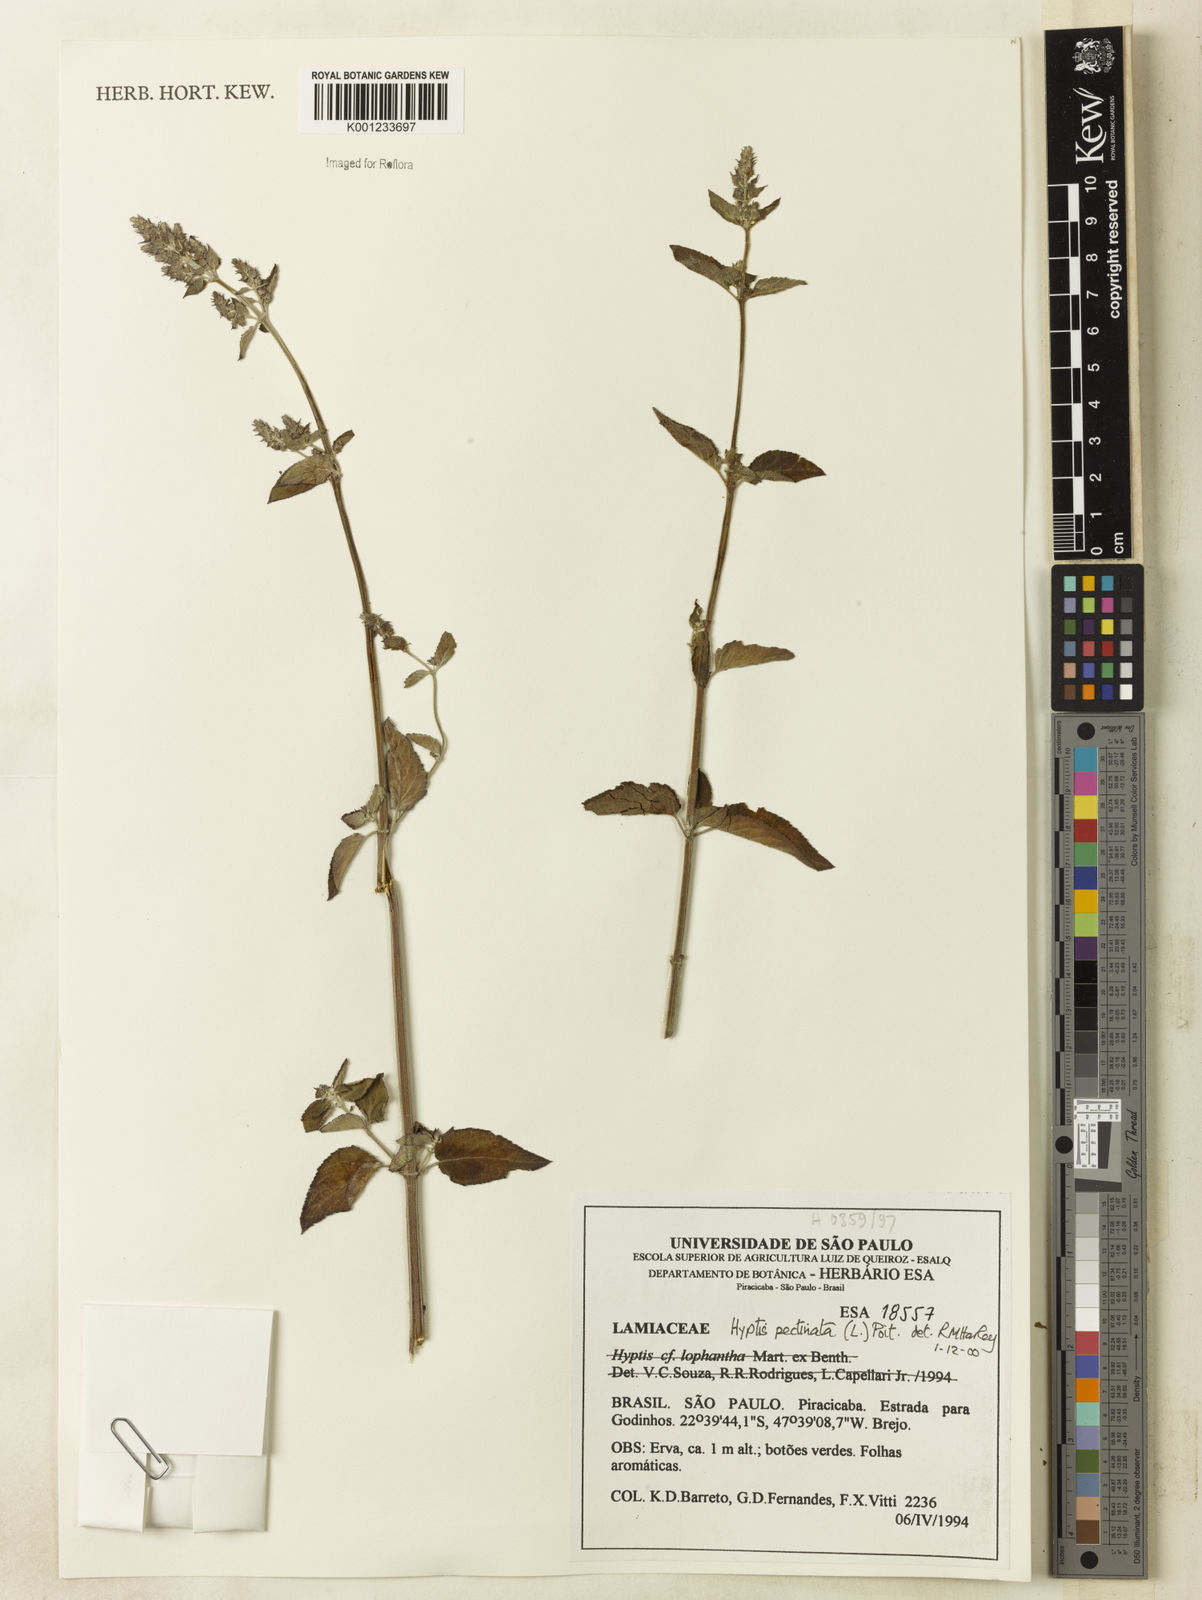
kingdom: Plantae
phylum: Tracheophyta
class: Magnoliopsida
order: Lamiales
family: Lamiaceae
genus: Mesosphaerum
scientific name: Mesosphaerum pectinatum
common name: Comb hyptis
